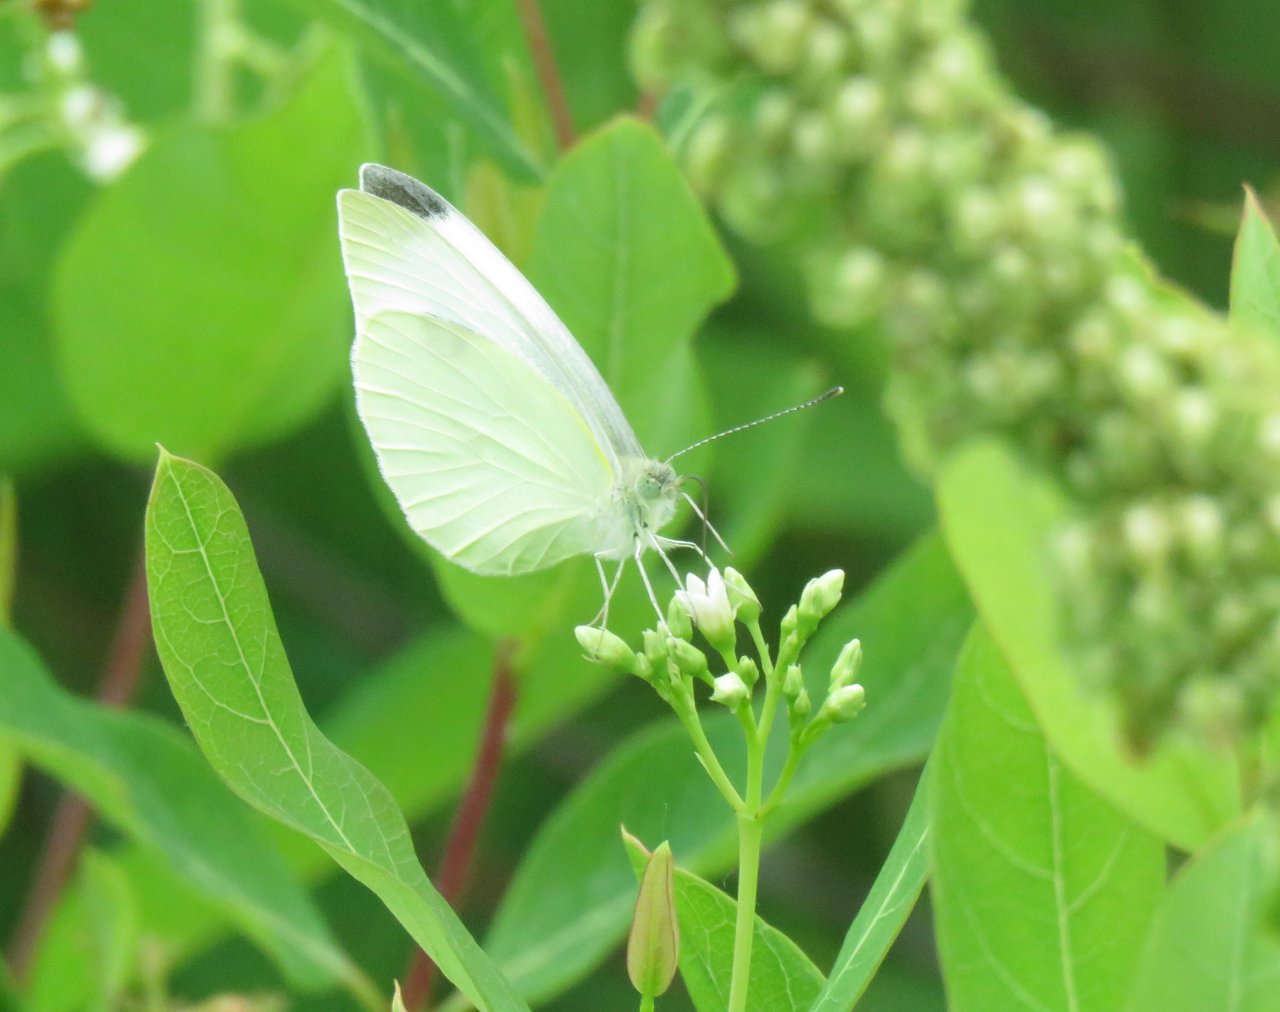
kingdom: Animalia
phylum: Arthropoda
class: Insecta
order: Lepidoptera
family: Pieridae
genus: Pieris
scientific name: Pieris rapae
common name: Cabbage White
